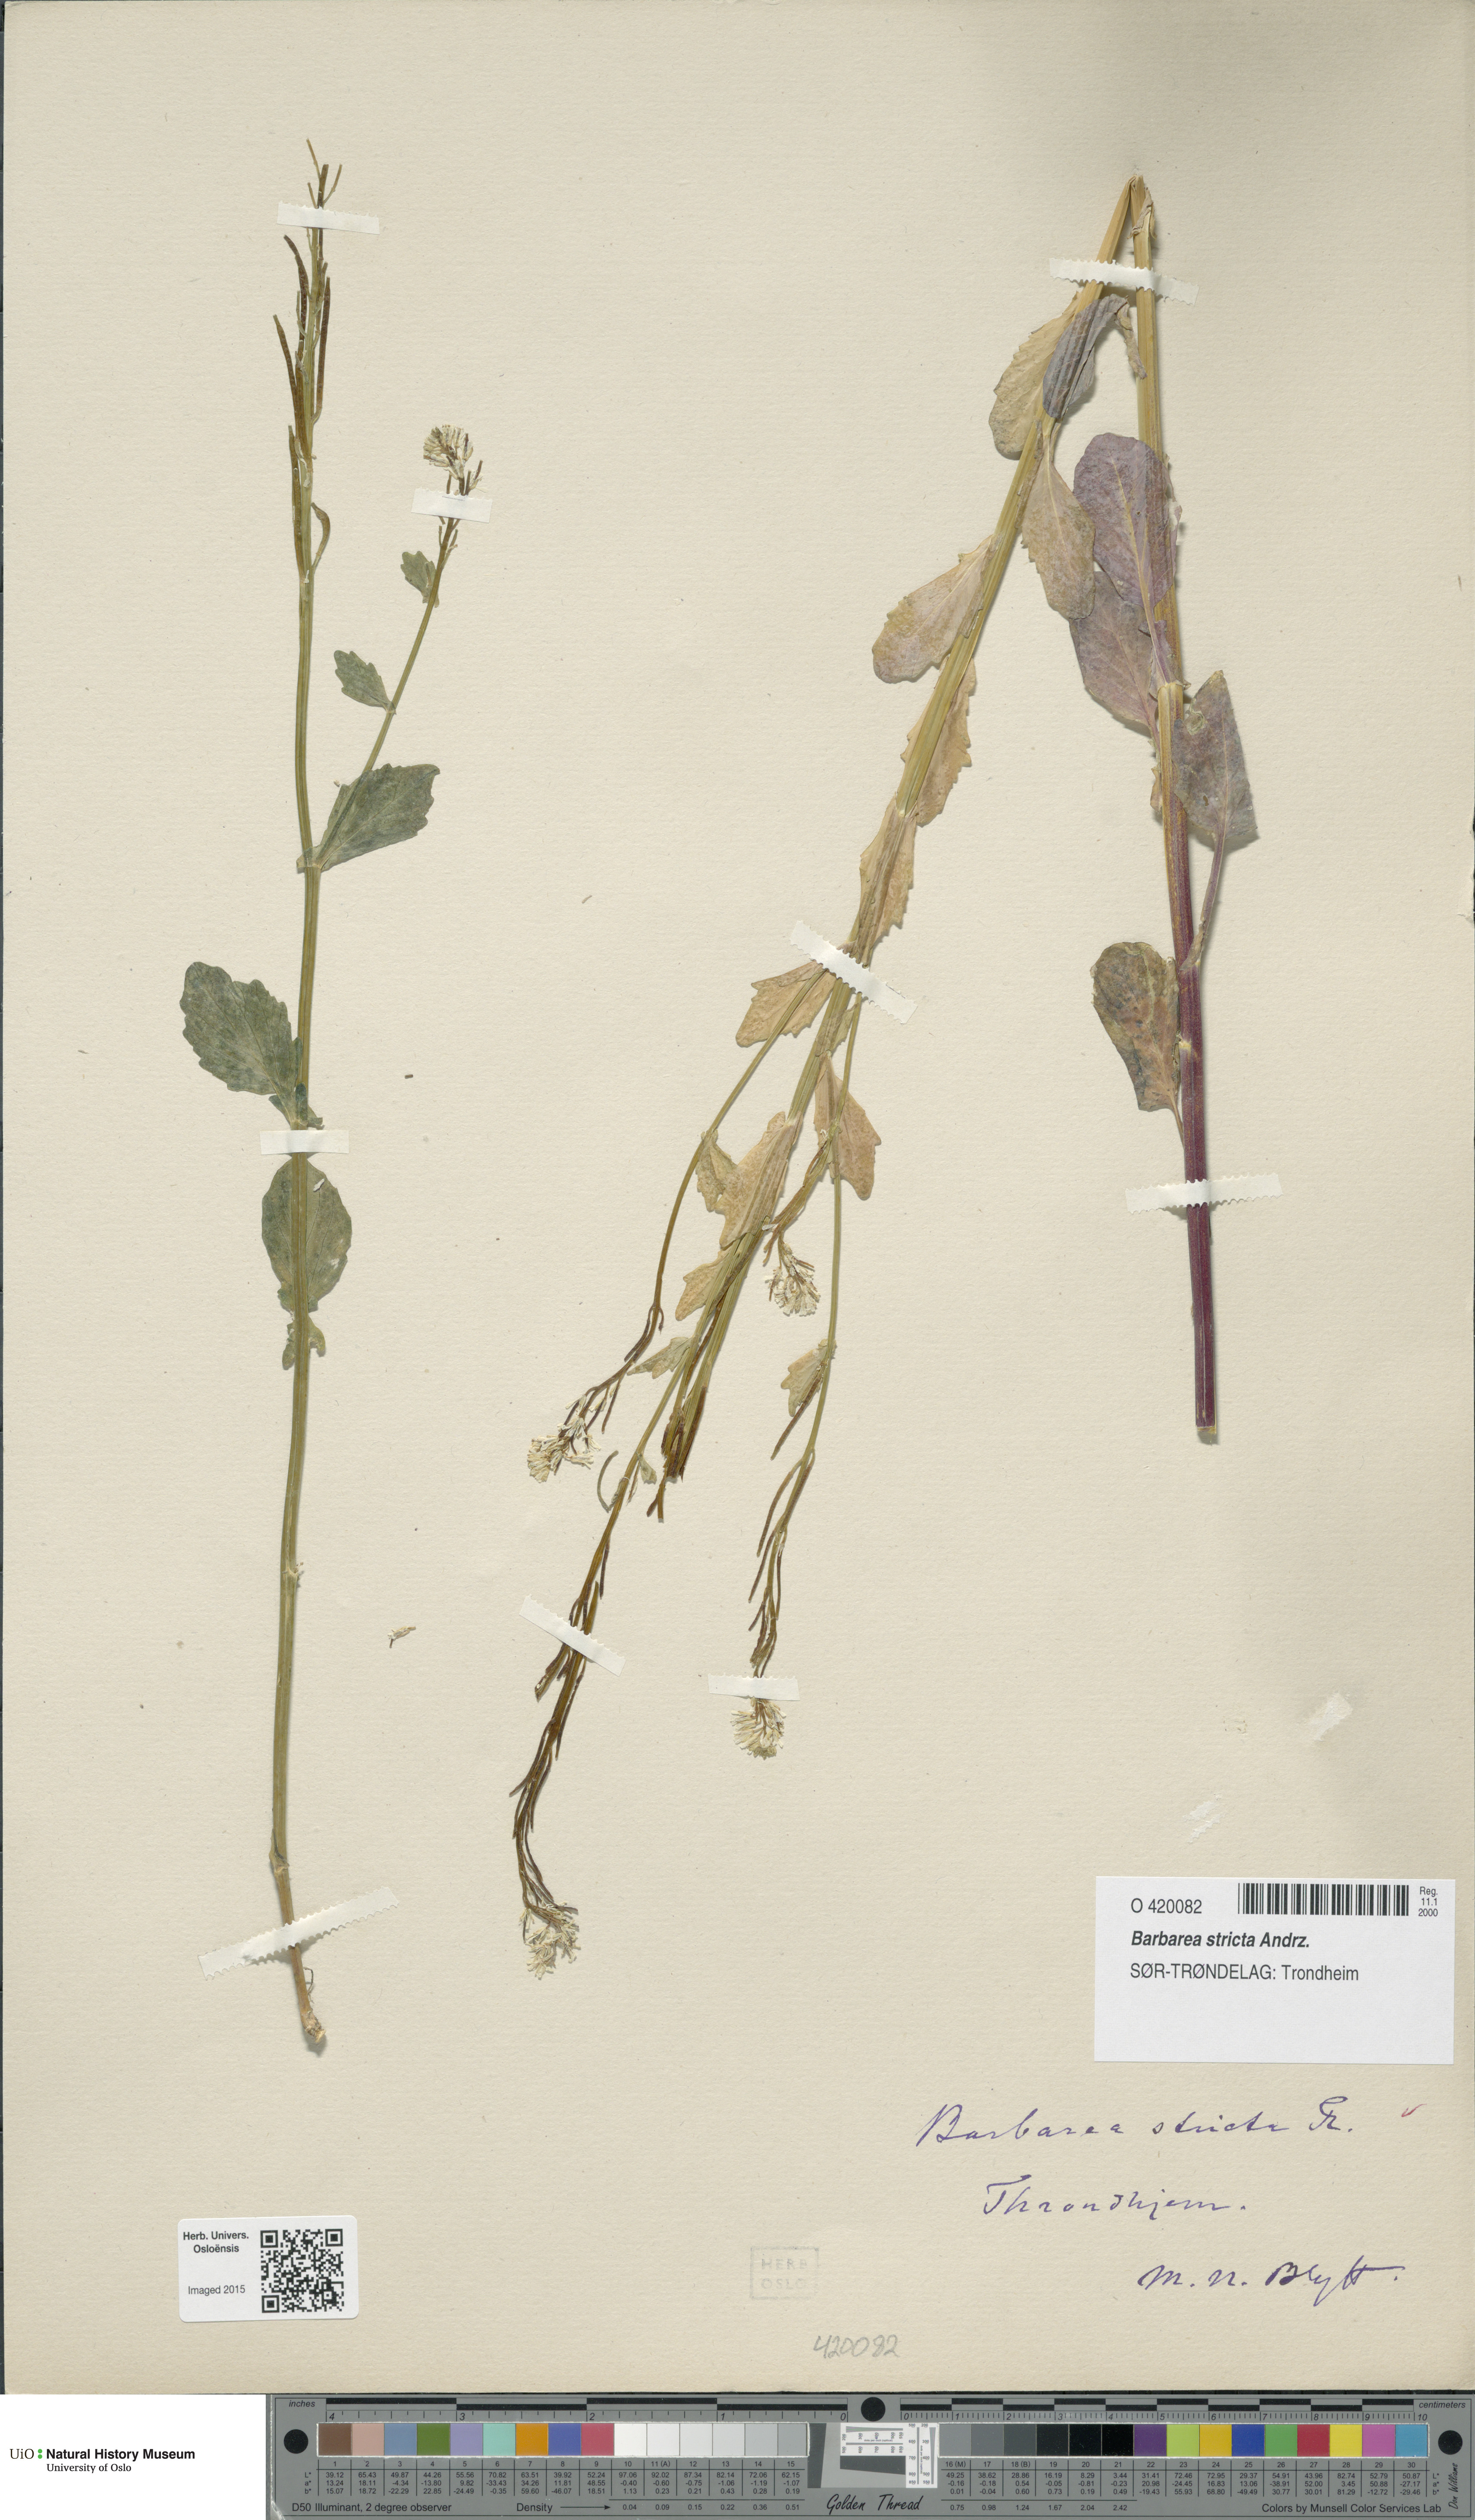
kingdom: Plantae
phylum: Tracheophyta
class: Magnoliopsida
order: Brassicales
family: Brassicaceae
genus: Barbarea
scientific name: Barbarea stricta
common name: Small-flowered winter-cress
